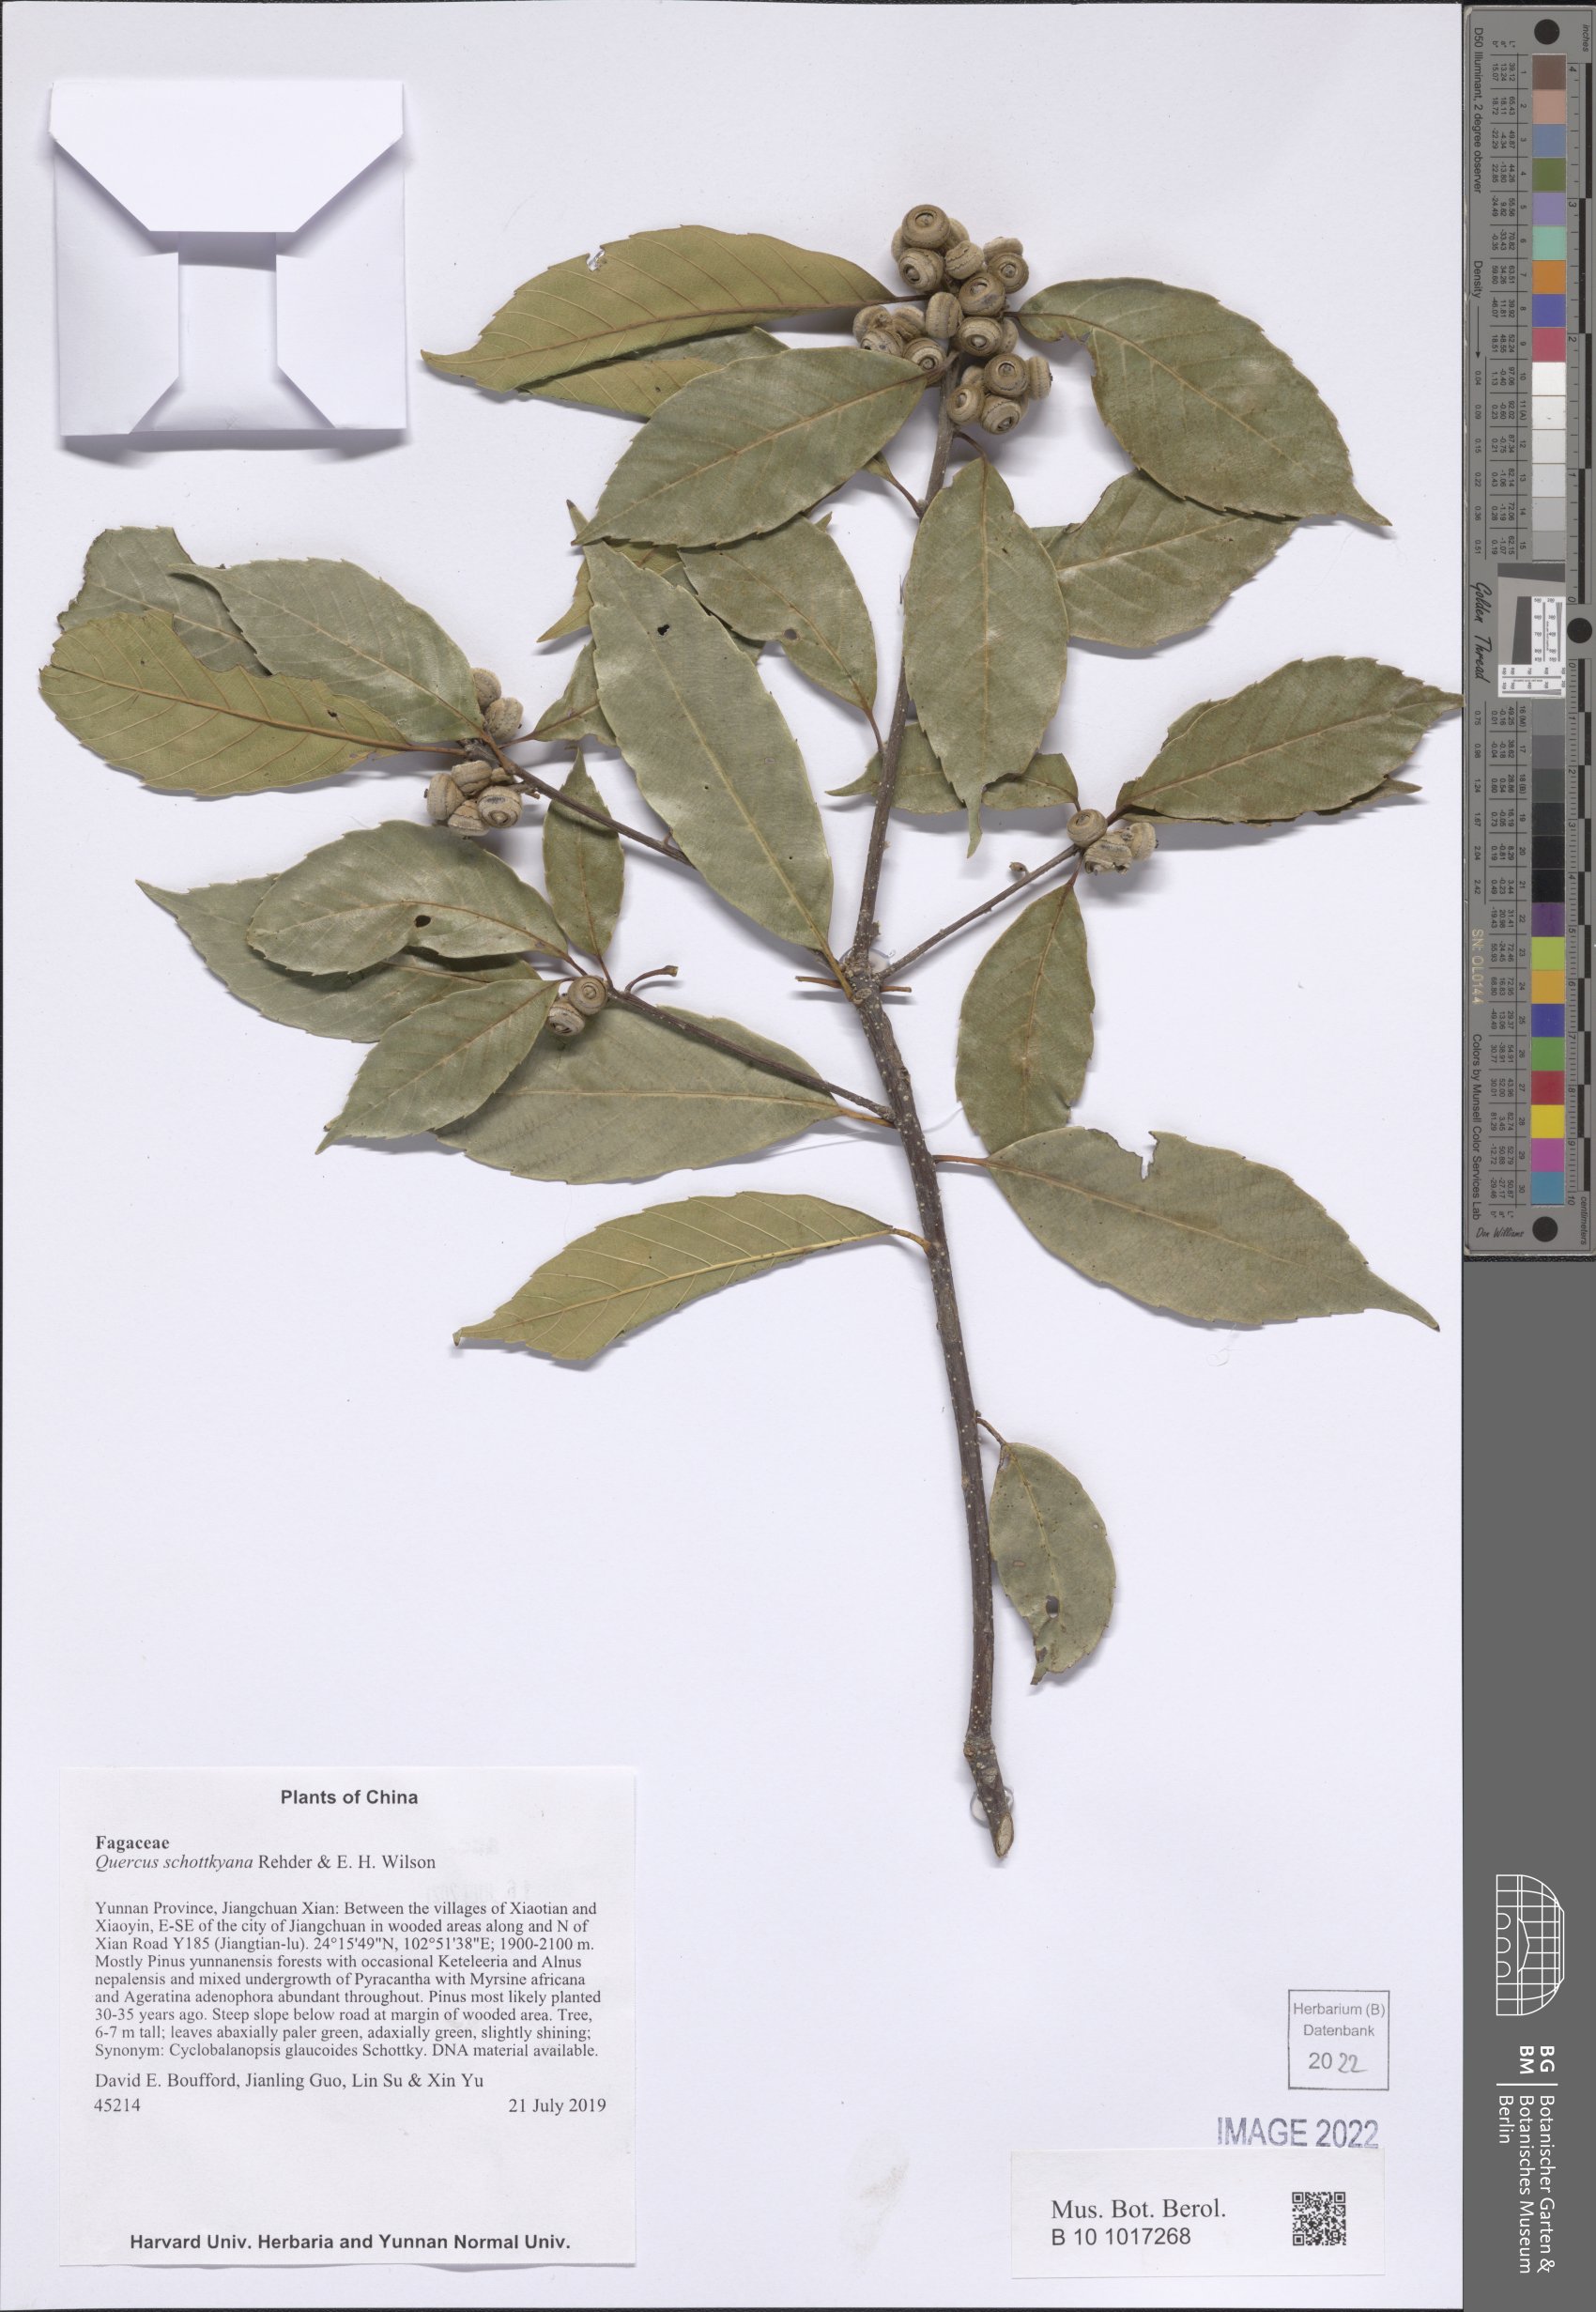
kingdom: Plantae
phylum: Tracheophyta
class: Magnoliopsida
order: Fagales
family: Fagaceae
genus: Quercus
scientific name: Quercus schottkyana
